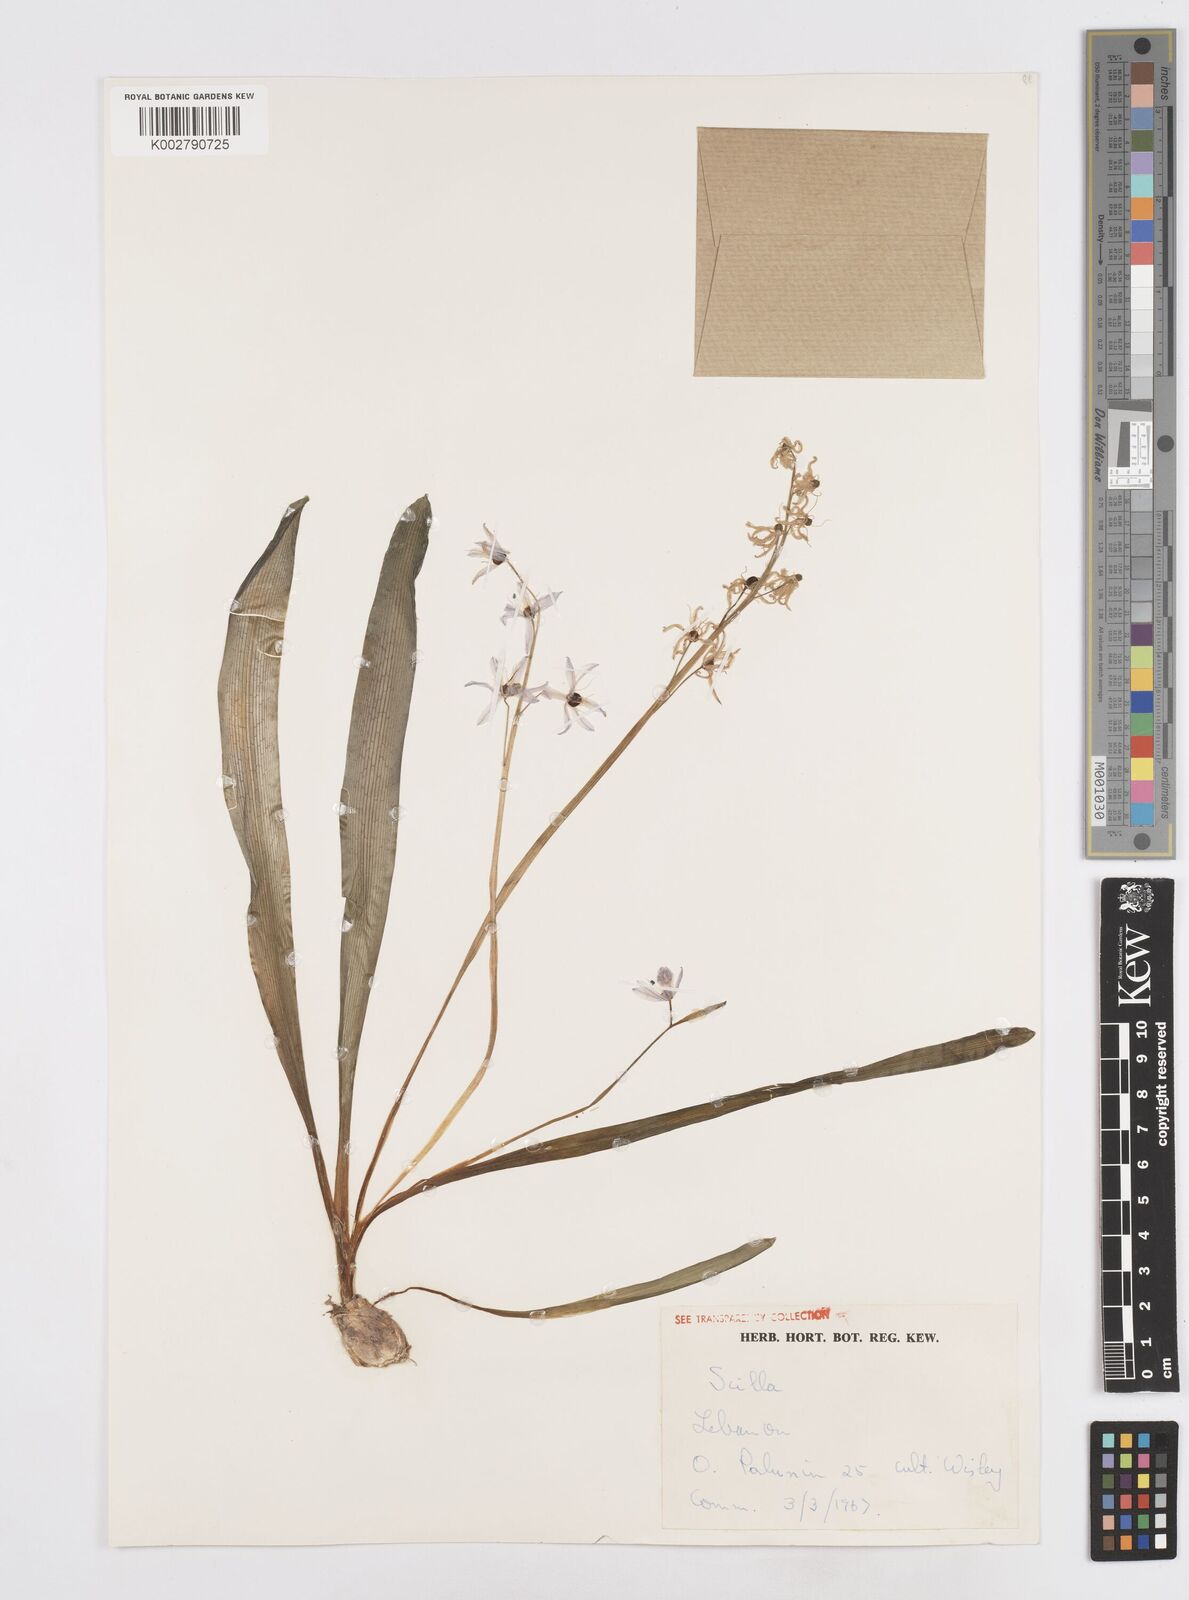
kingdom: Plantae
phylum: Tracheophyta
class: Liliopsida
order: Asparagales
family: Asparagaceae
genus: Scilla
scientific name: Scilla siberica
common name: Siberian squill
